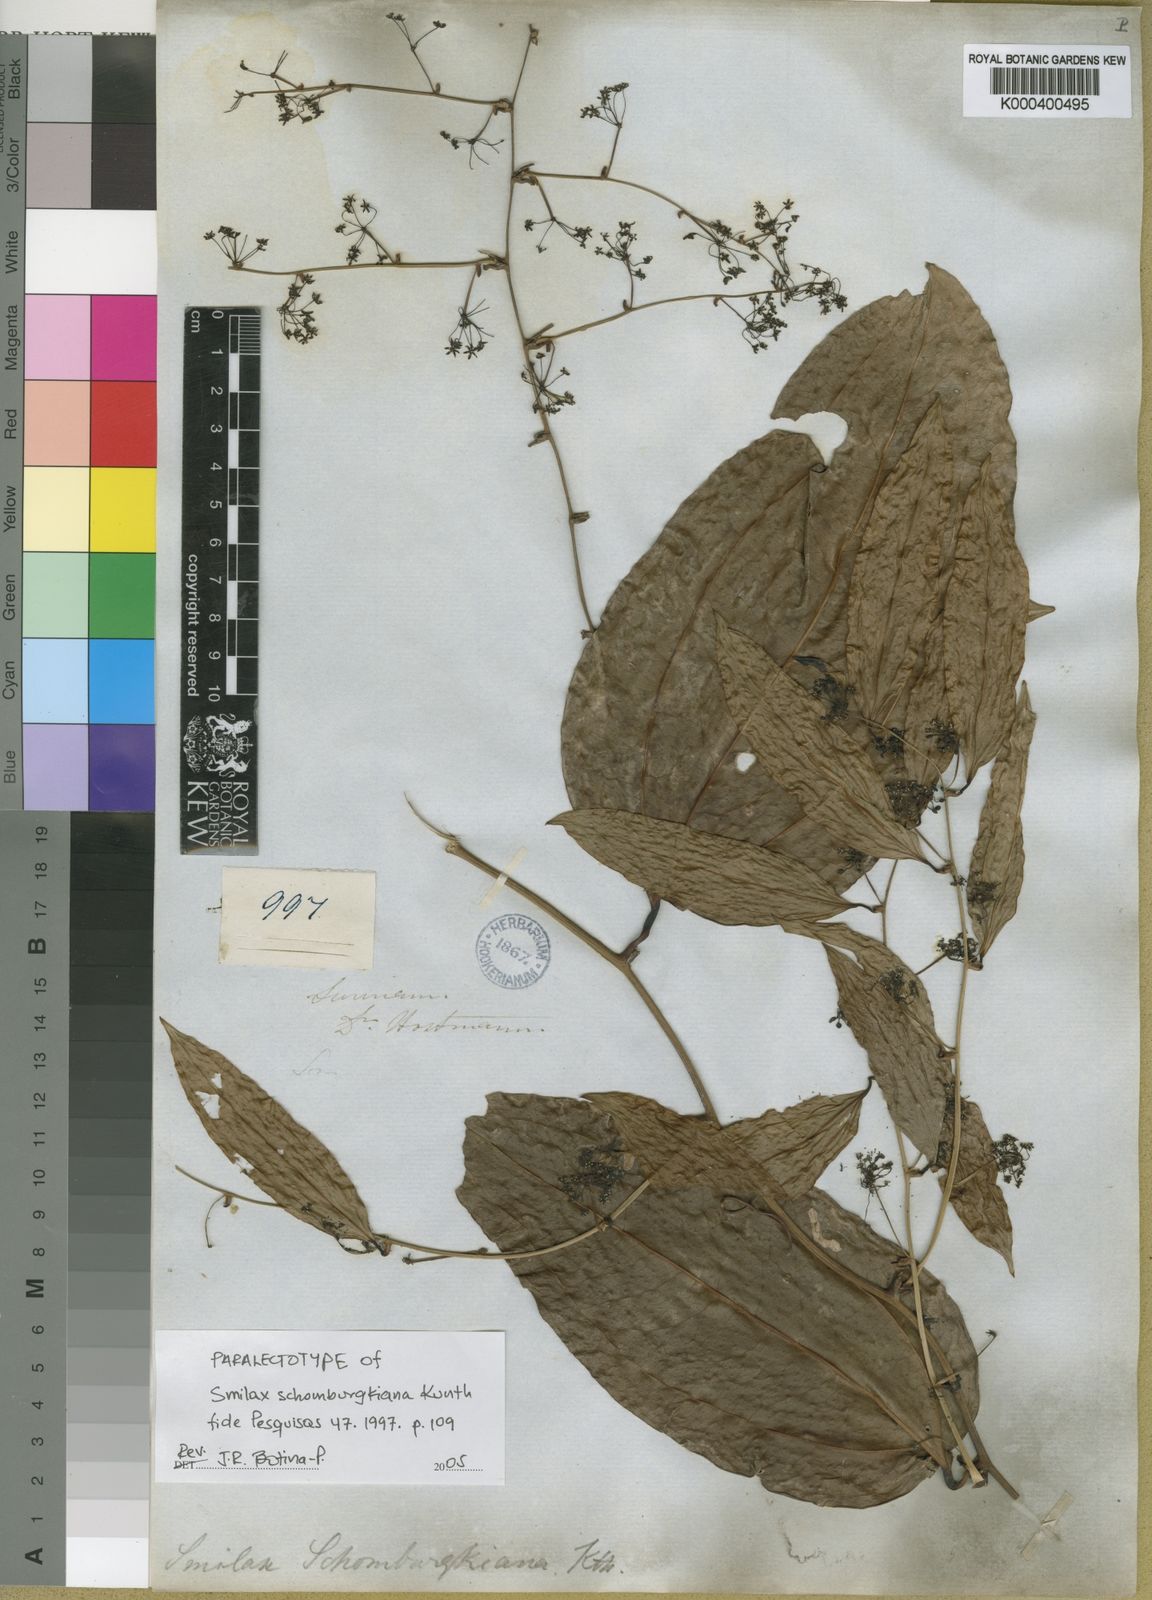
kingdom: Plantae
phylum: Tracheophyta
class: Liliopsida
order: Liliales
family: Smilacaceae
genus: Smilax
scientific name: Smilax schomburgkiana
